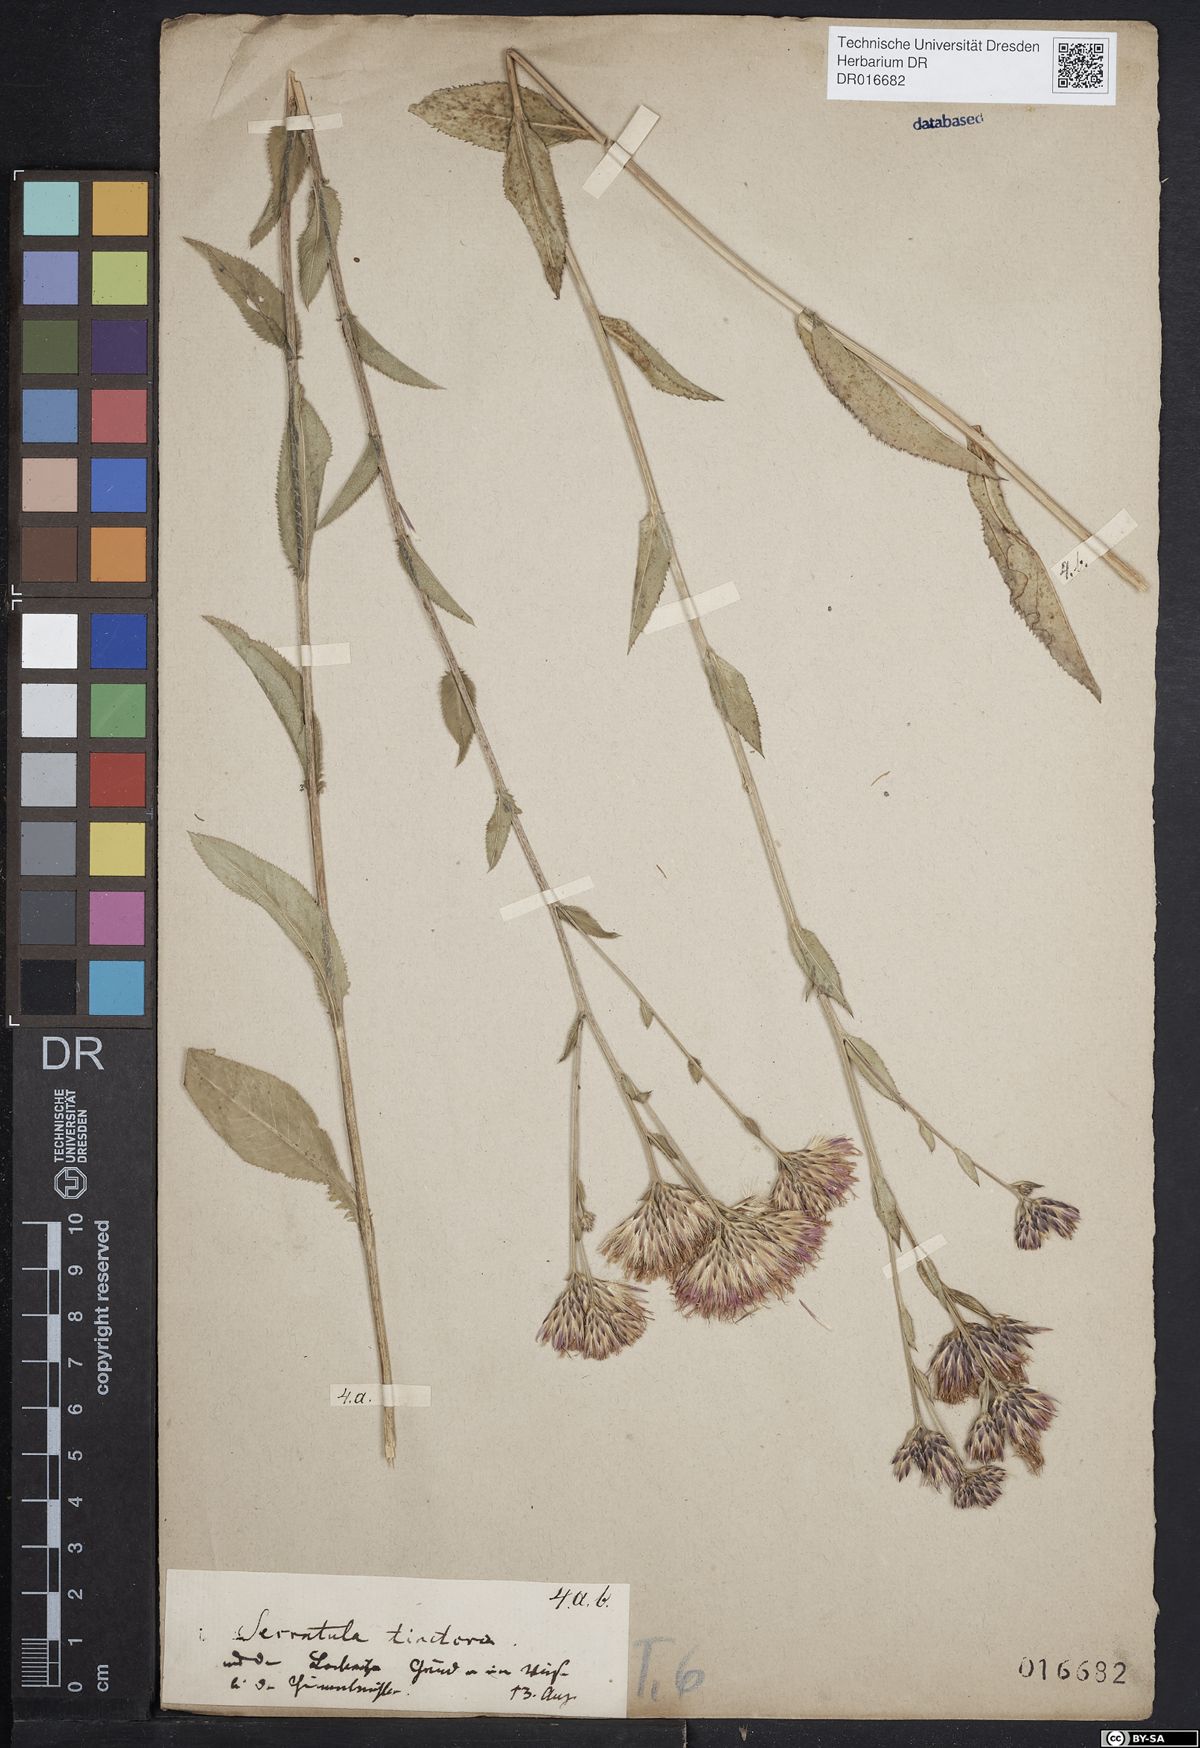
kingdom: Plantae
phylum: Tracheophyta
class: Magnoliopsida
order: Asterales
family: Asteraceae
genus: Serratula
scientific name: Serratula tinctoria
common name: Saw-wort
